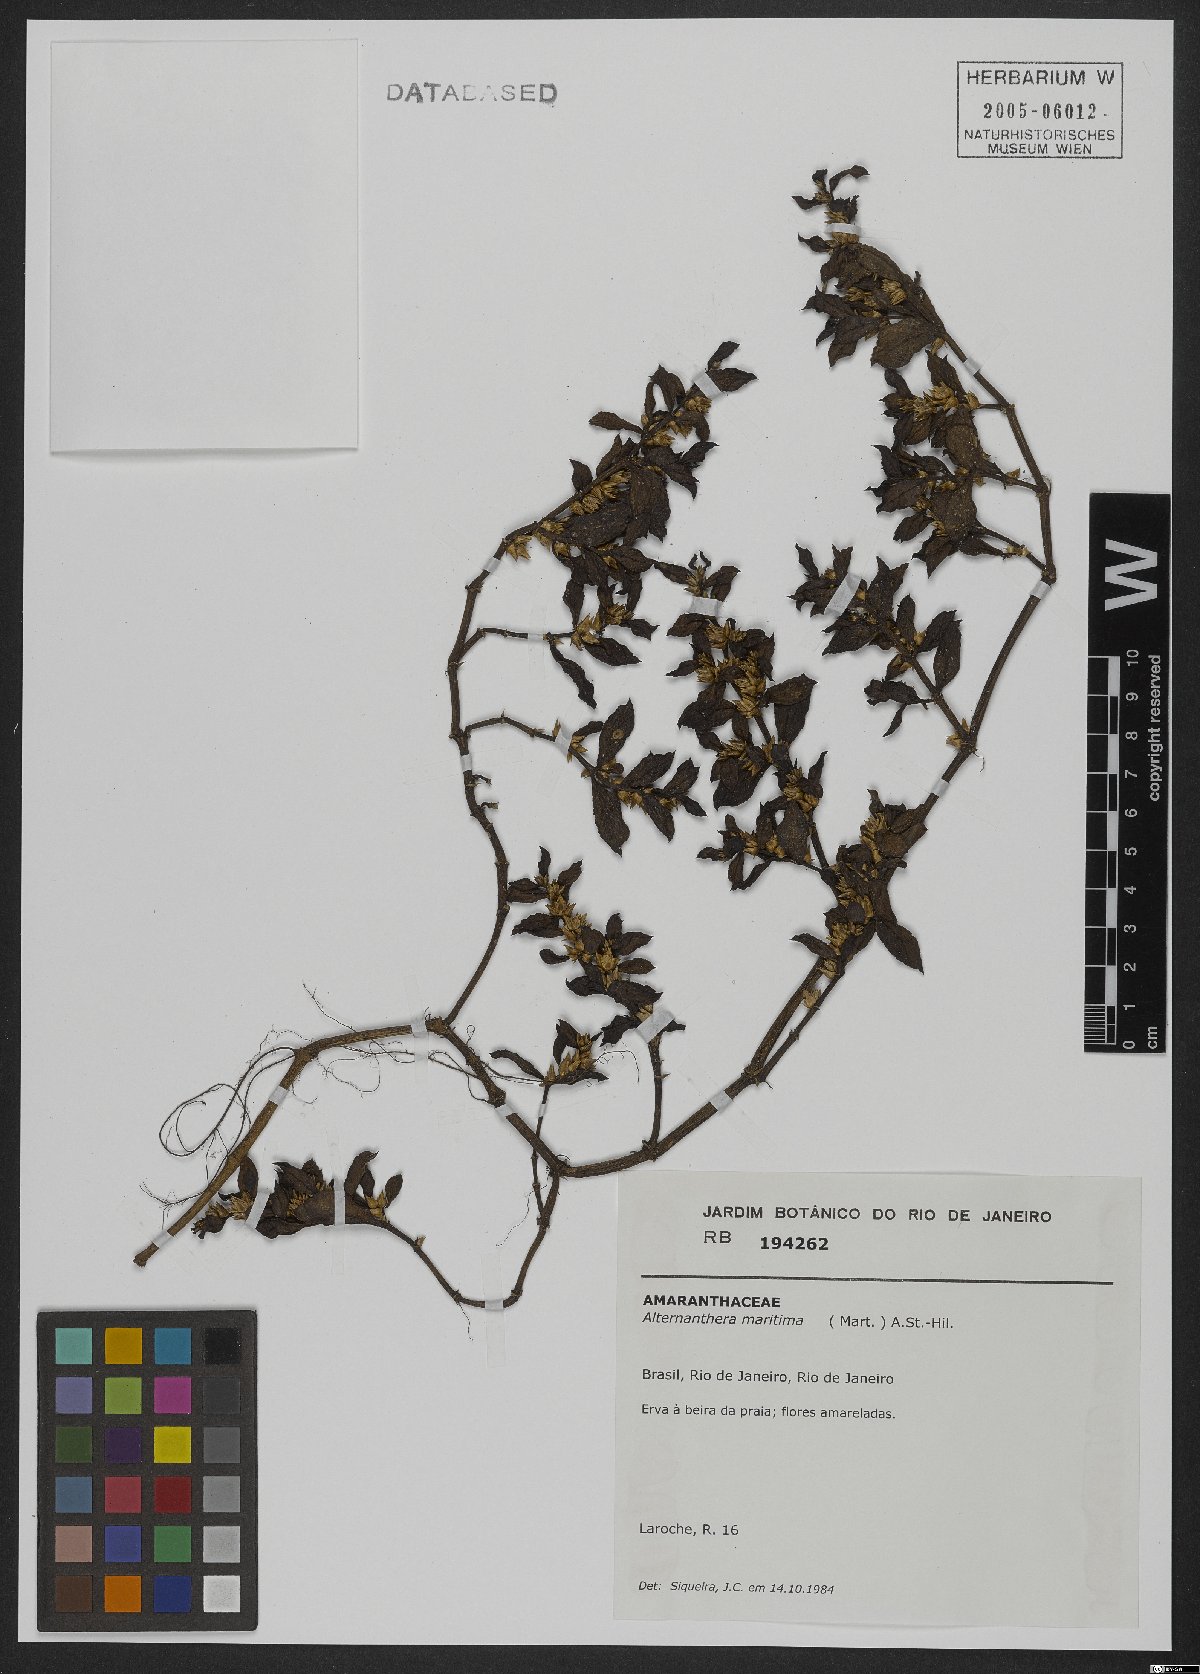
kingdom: Plantae
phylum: Tracheophyta
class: Magnoliopsida
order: Caryophyllales
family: Amaranthaceae
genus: Alternanthera
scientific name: Alternanthera littoralis
